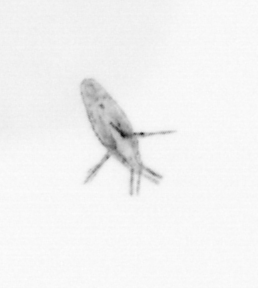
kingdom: Animalia
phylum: Arthropoda
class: Copepoda
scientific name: Copepoda
